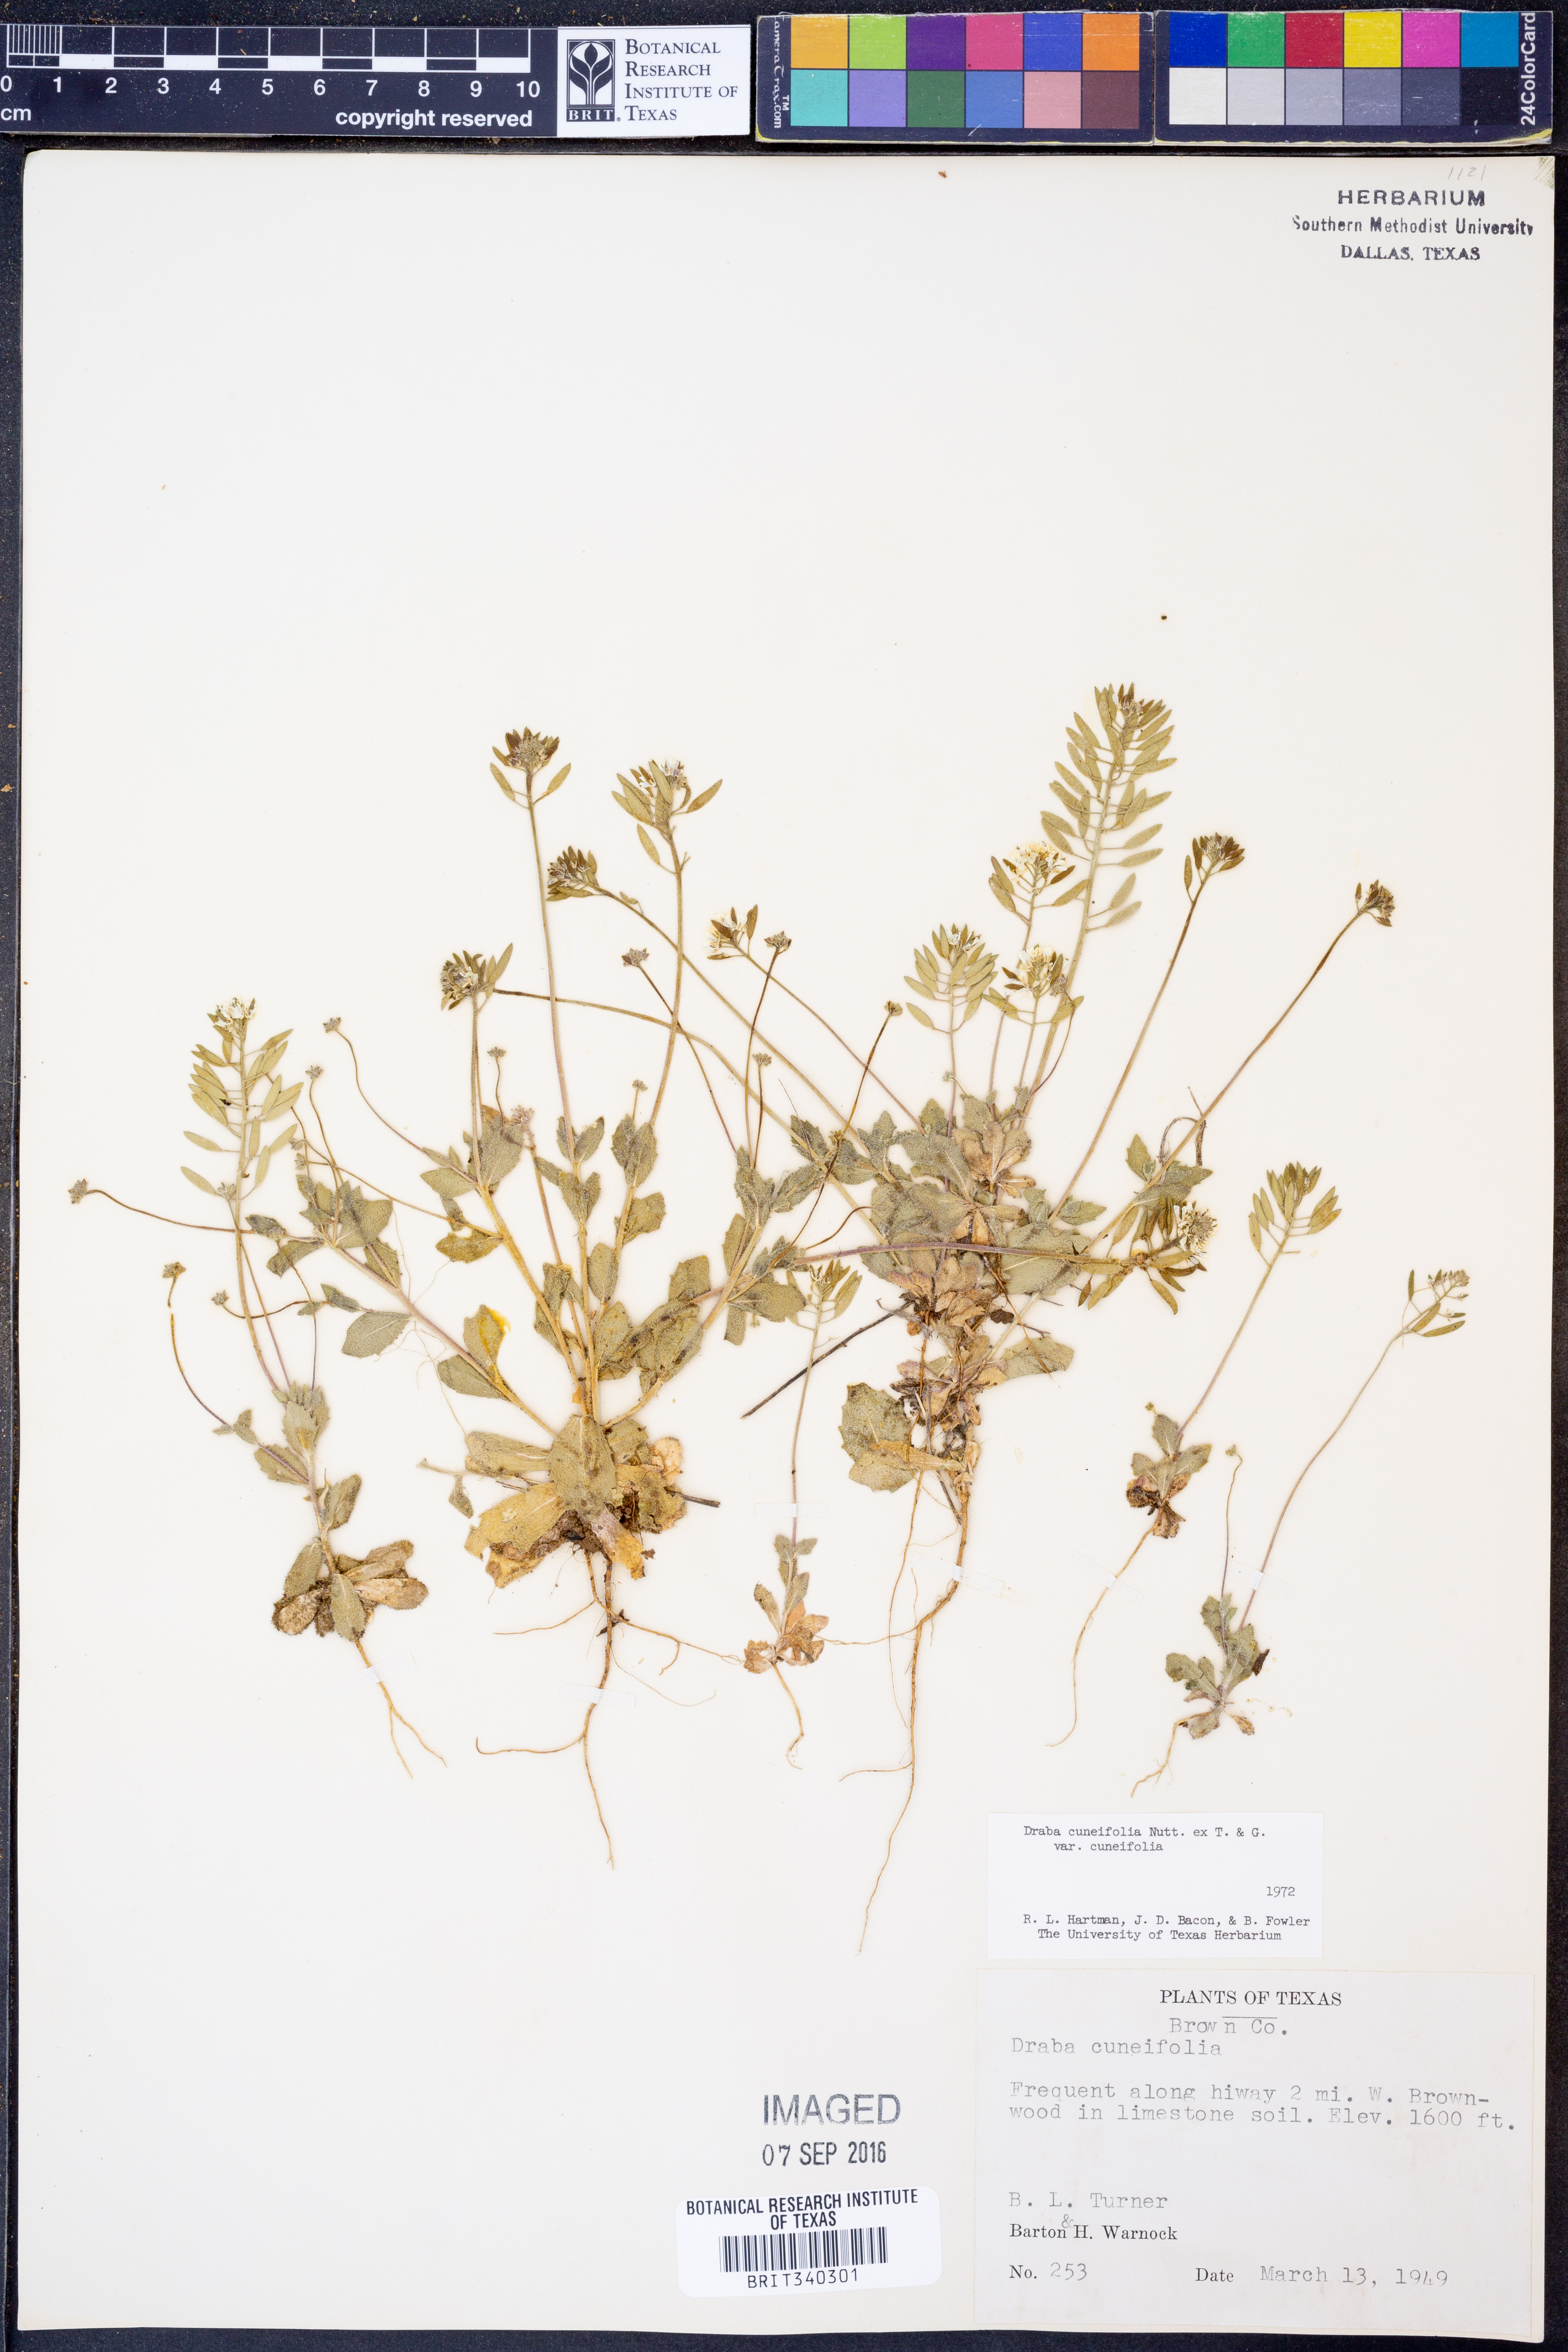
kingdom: Plantae
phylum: Tracheophyta
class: Magnoliopsida
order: Brassicales
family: Brassicaceae
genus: Tomostima
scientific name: Tomostima cuneifolia
